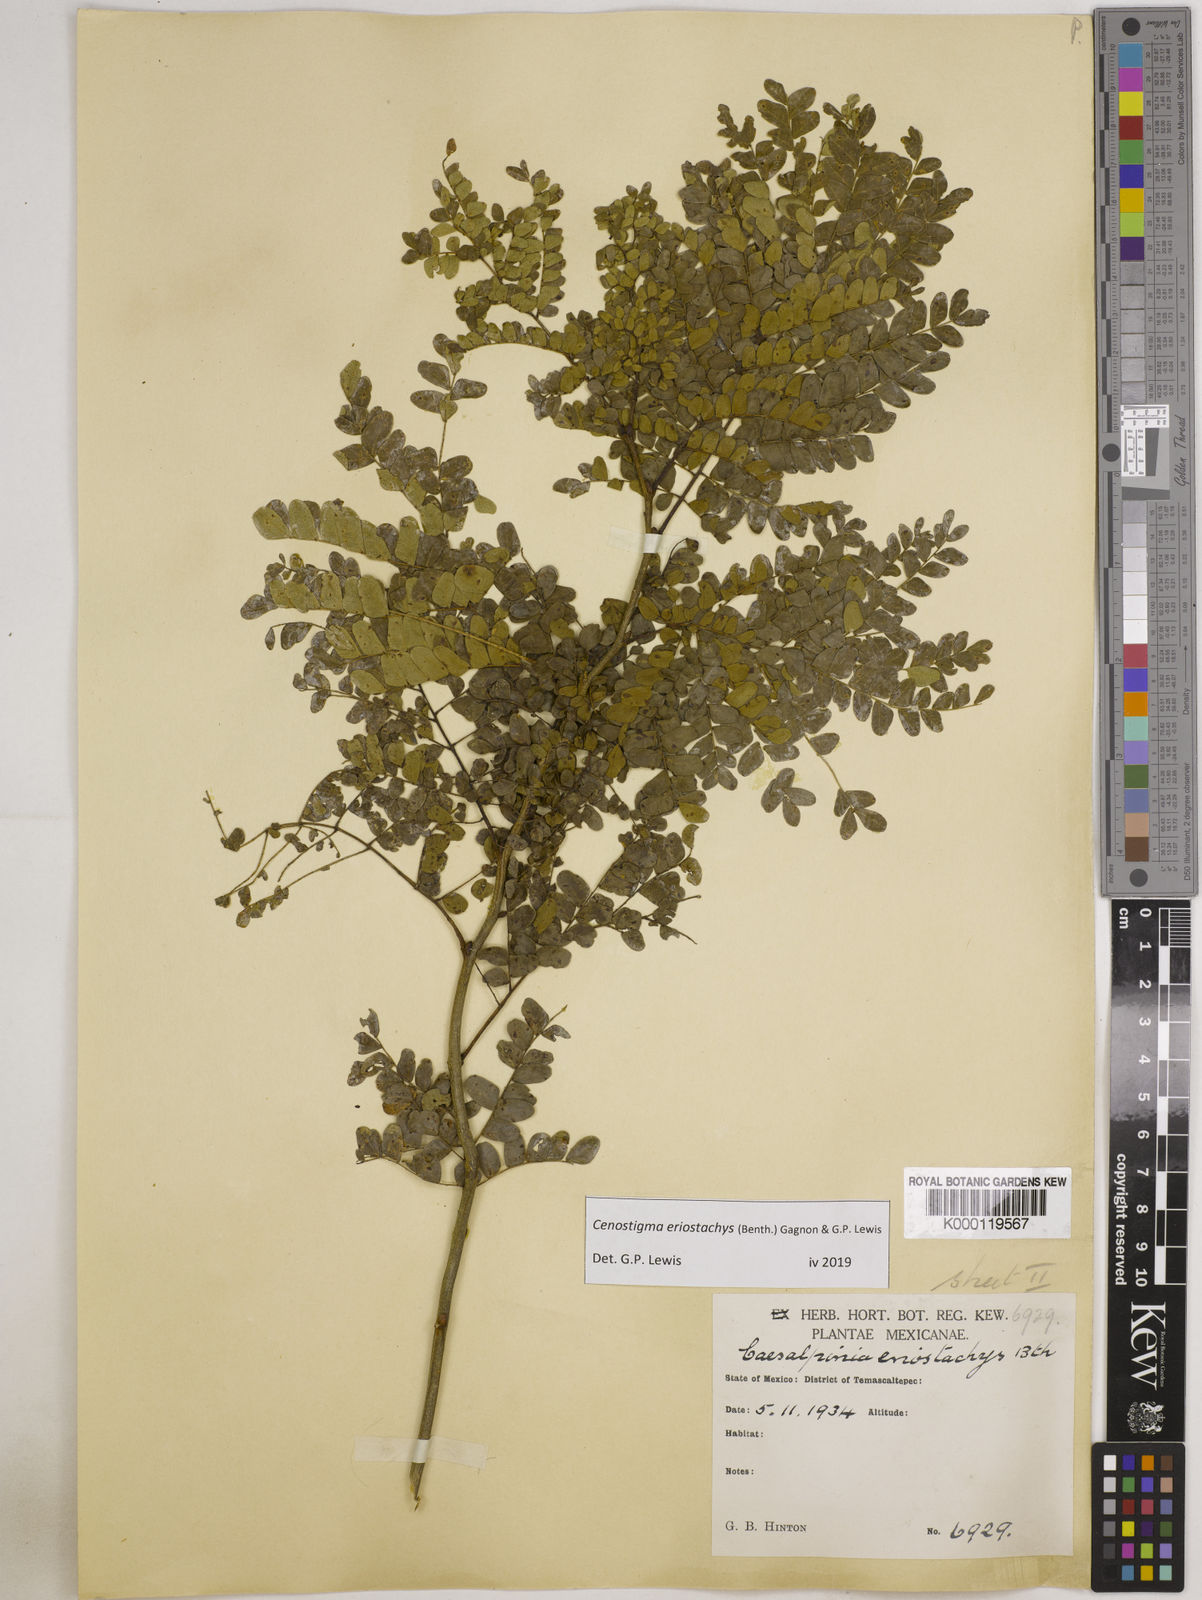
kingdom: Plantae
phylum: Tracheophyta
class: Magnoliopsida
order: Fabales
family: Fabaceae
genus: Cenostigma
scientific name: Cenostigma eriostachys
